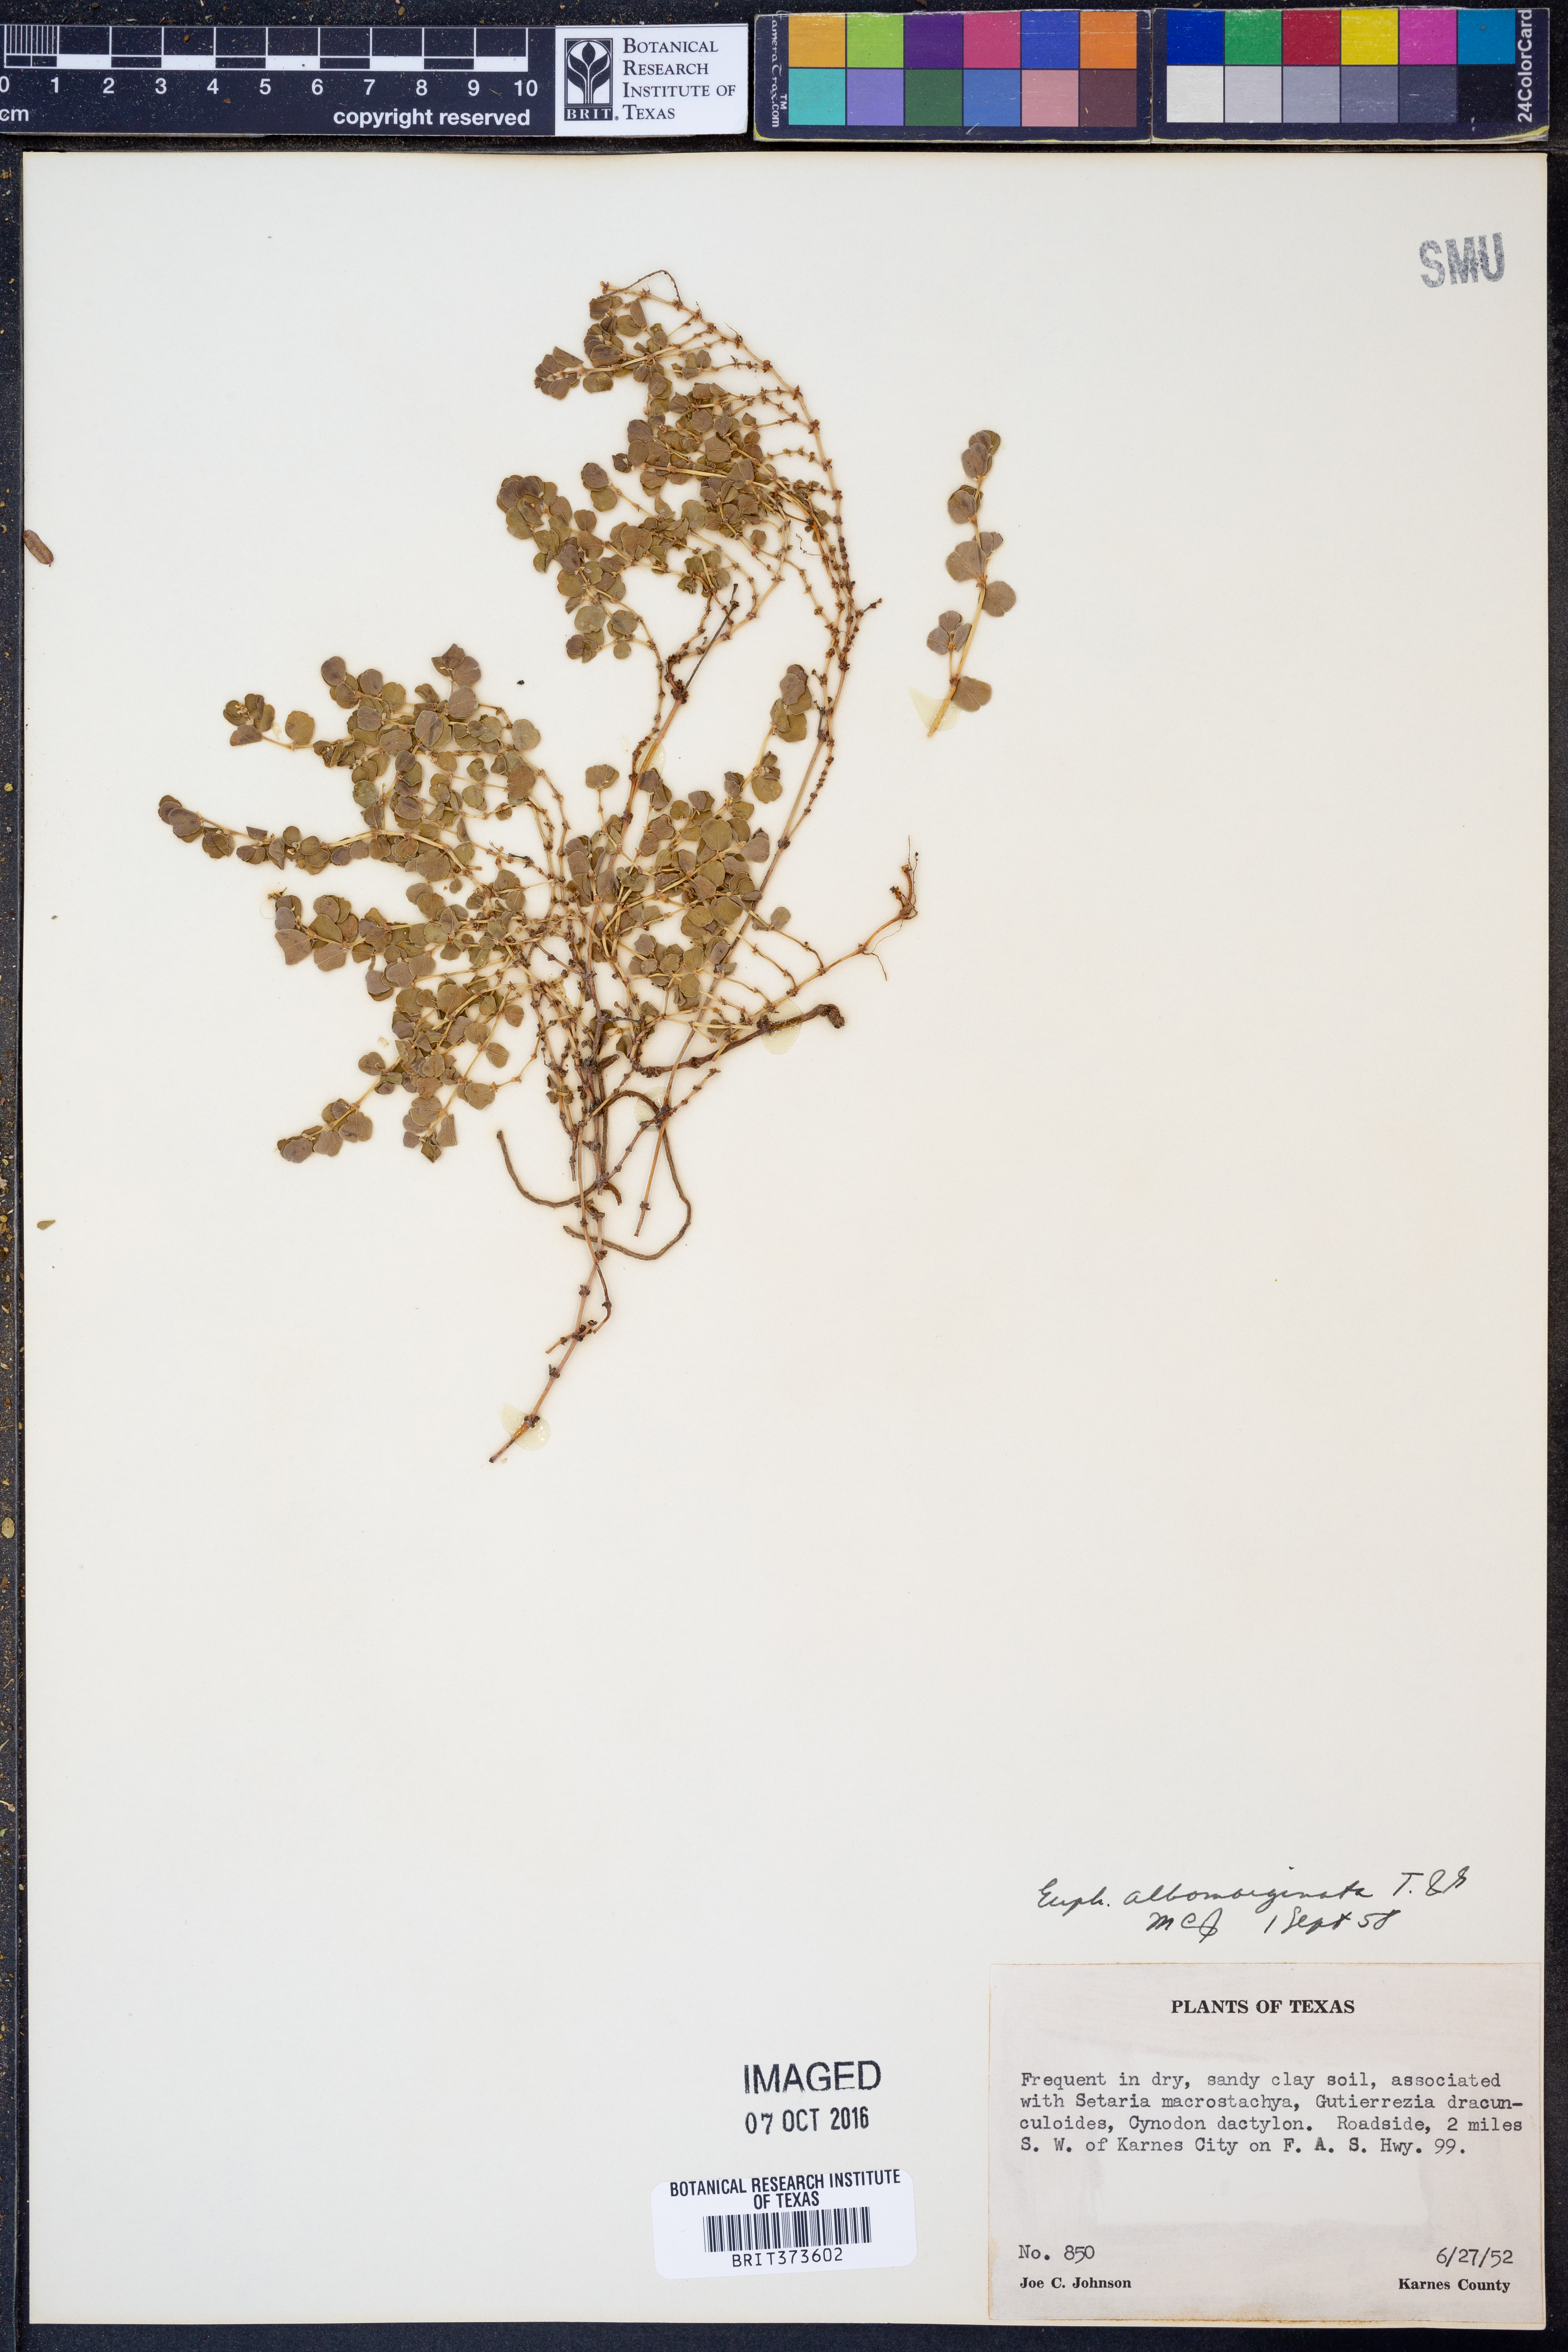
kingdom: Plantae
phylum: Tracheophyta
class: Magnoliopsida
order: Malpighiales
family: Euphorbiaceae
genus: Euphorbia
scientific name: Euphorbia albomarginata
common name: Whitemargin sandmat
